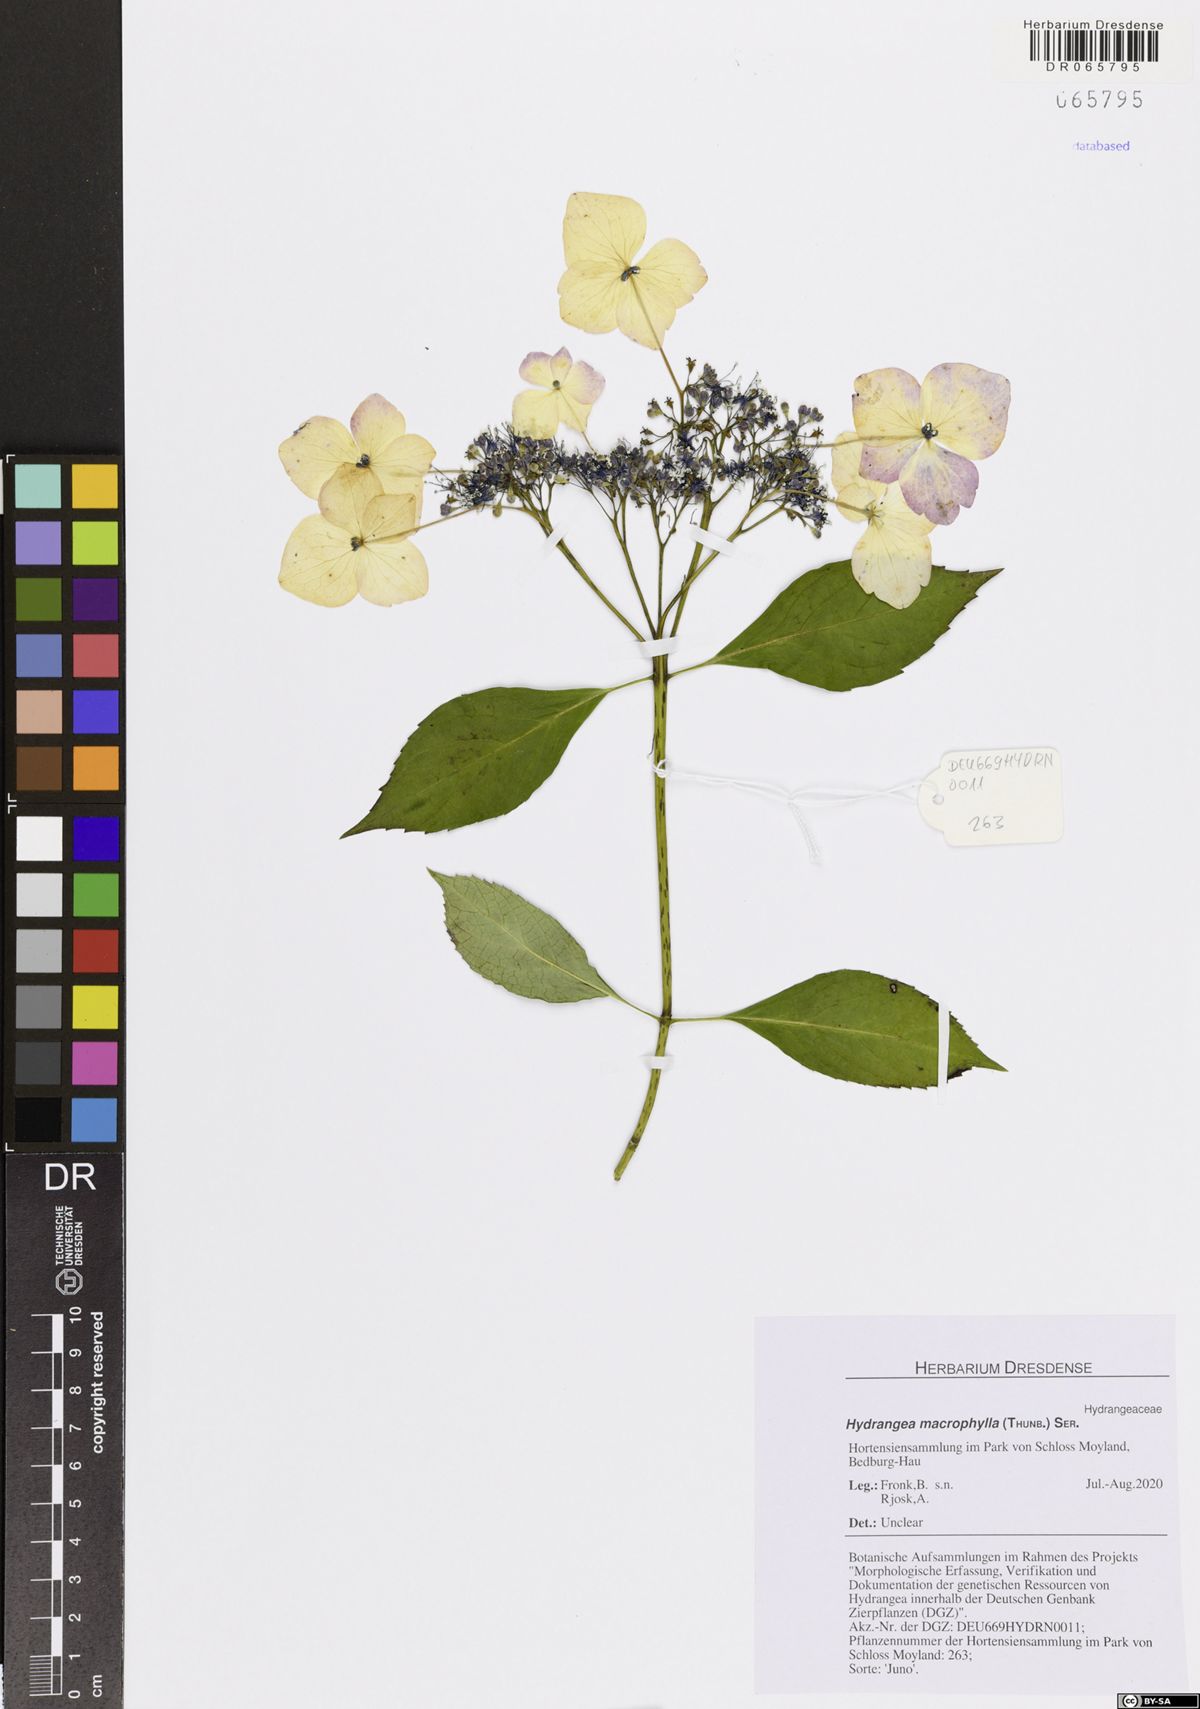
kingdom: Plantae
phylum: Tracheophyta
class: Magnoliopsida
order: Cornales
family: Hydrangeaceae
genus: Hydrangea
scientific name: Hydrangea macrophylla
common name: Hydrangea
